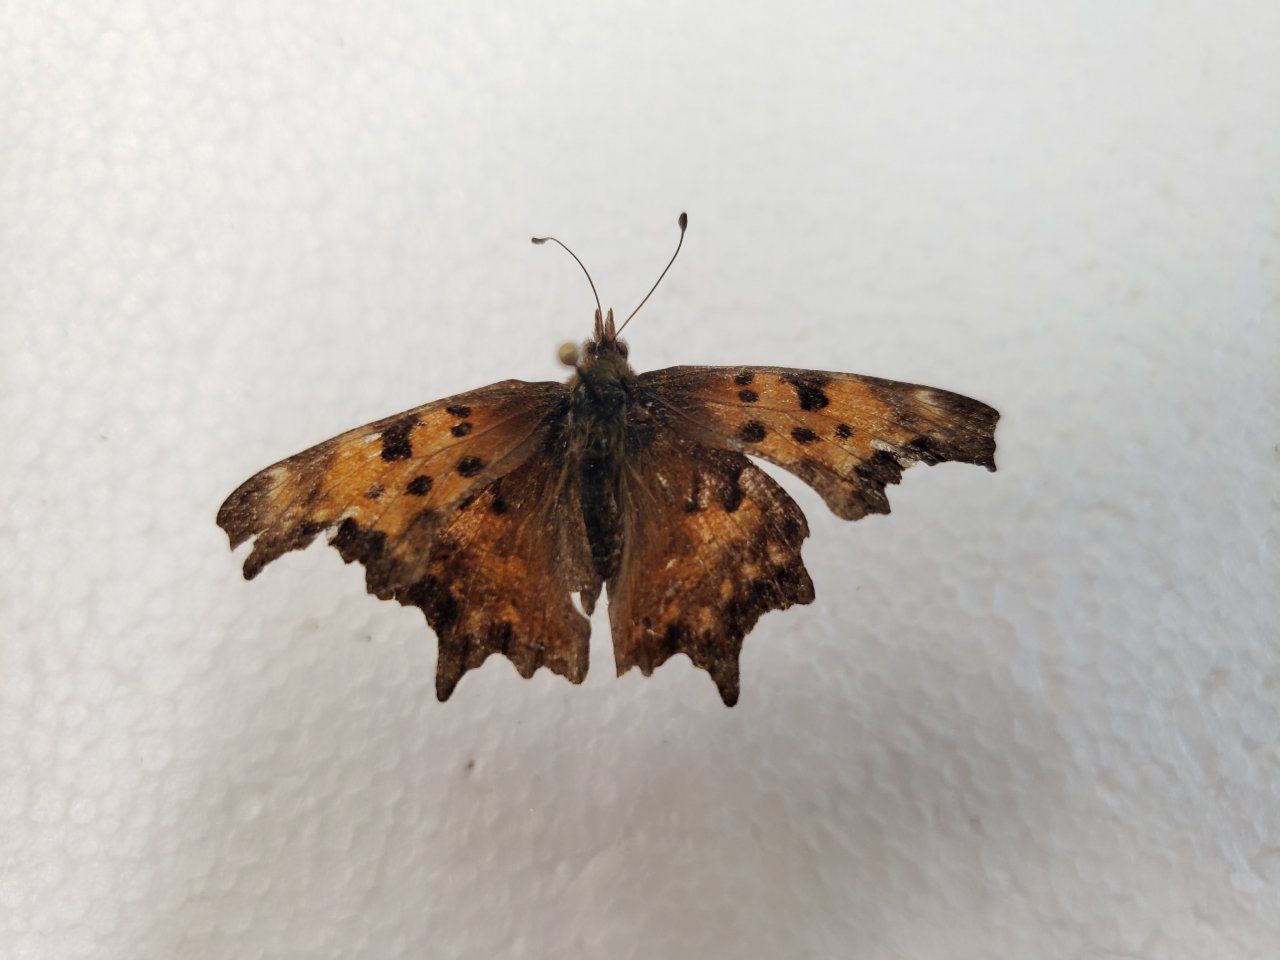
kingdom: Animalia
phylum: Arthropoda
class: Insecta
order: Lepidoptera
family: Nymphalidae
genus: Polygonia
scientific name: Polygonia gracilis
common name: Hoary Comma
